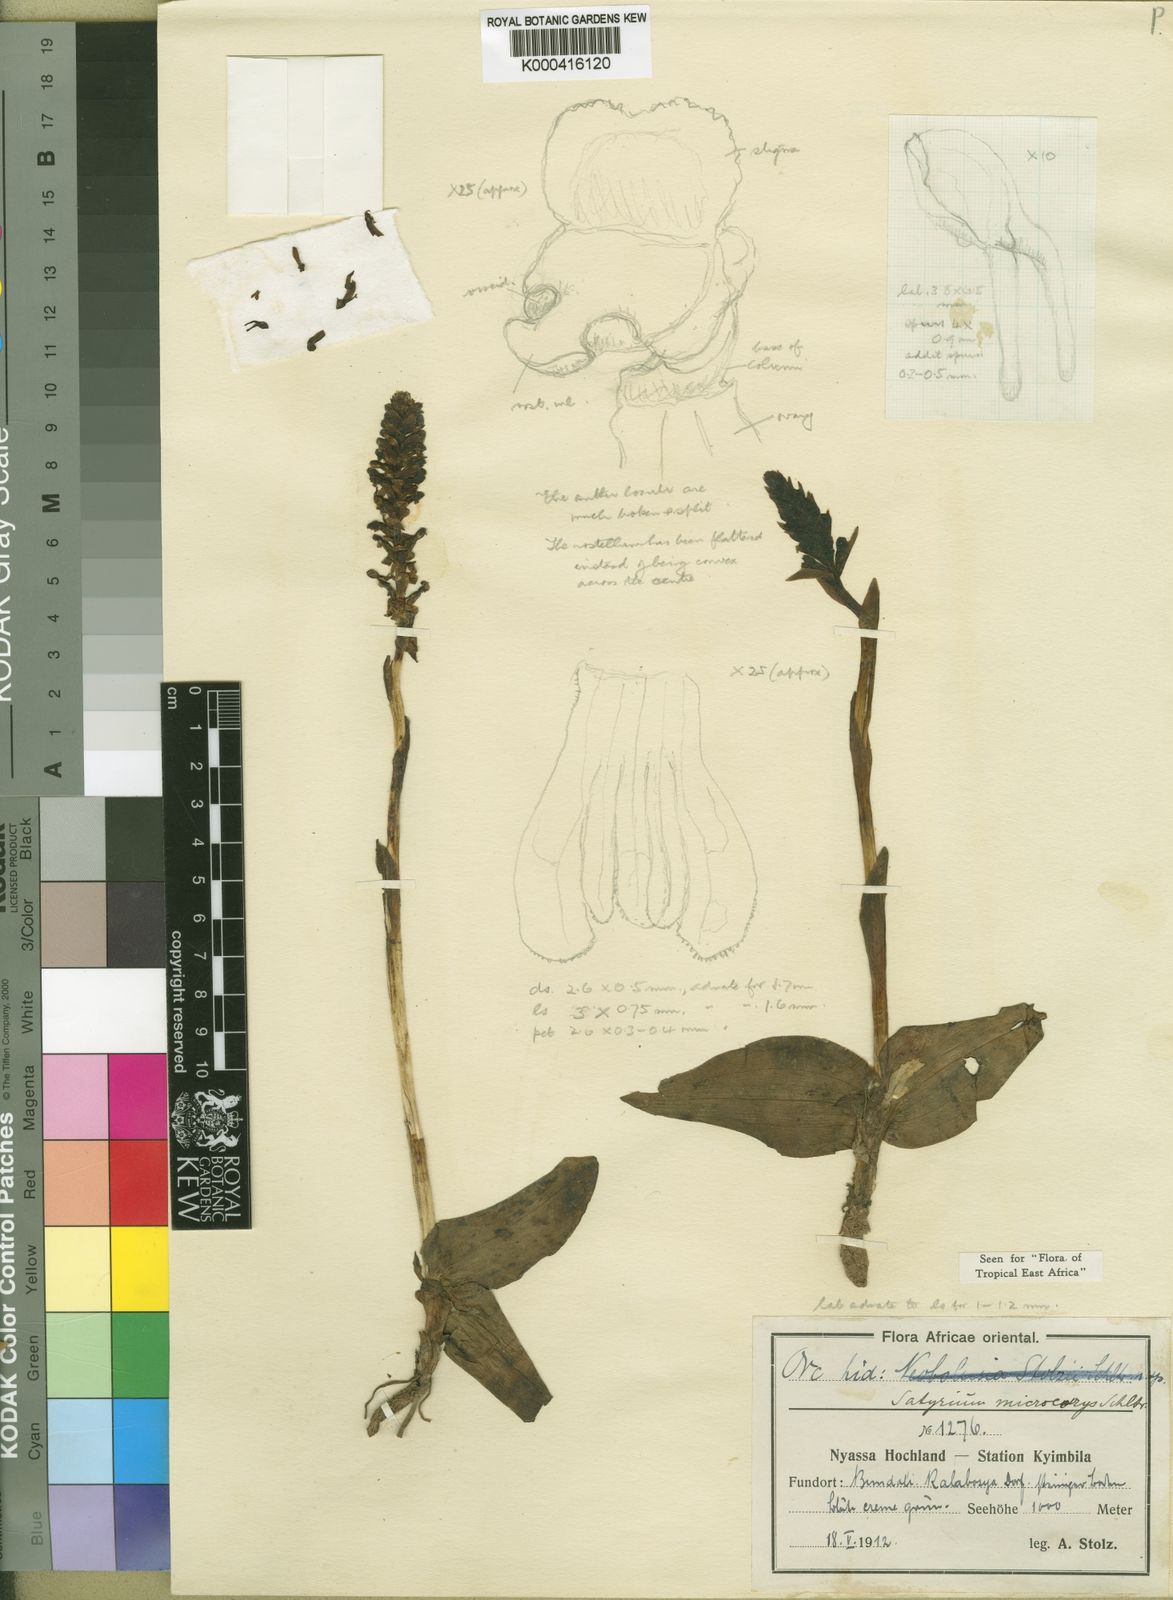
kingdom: Plantae
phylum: Tracheophyta
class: Liliopsida
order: Asparagales
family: Orchidaceae
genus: Satyrium
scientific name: Satyrium microcorys
